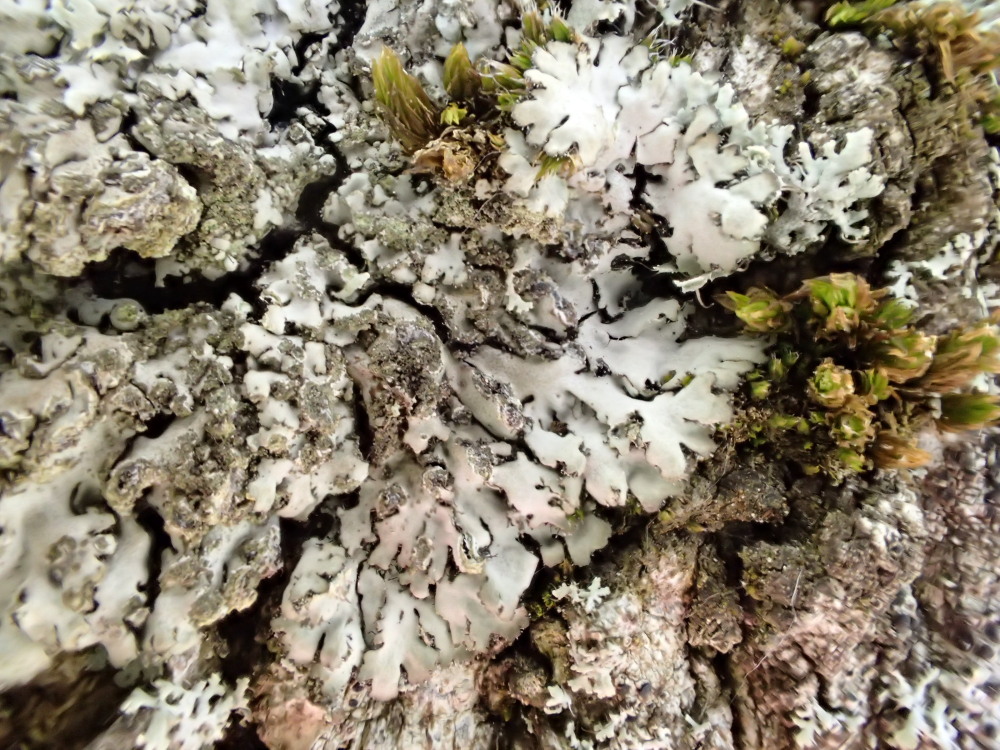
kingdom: Fungi
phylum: Ascomycota
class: Lecanoromycetes
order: Caliciales
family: Physciaceae
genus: Phaeophyscia
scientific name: Phaeophyscia orbicularis
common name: grågrøn rosetlav
